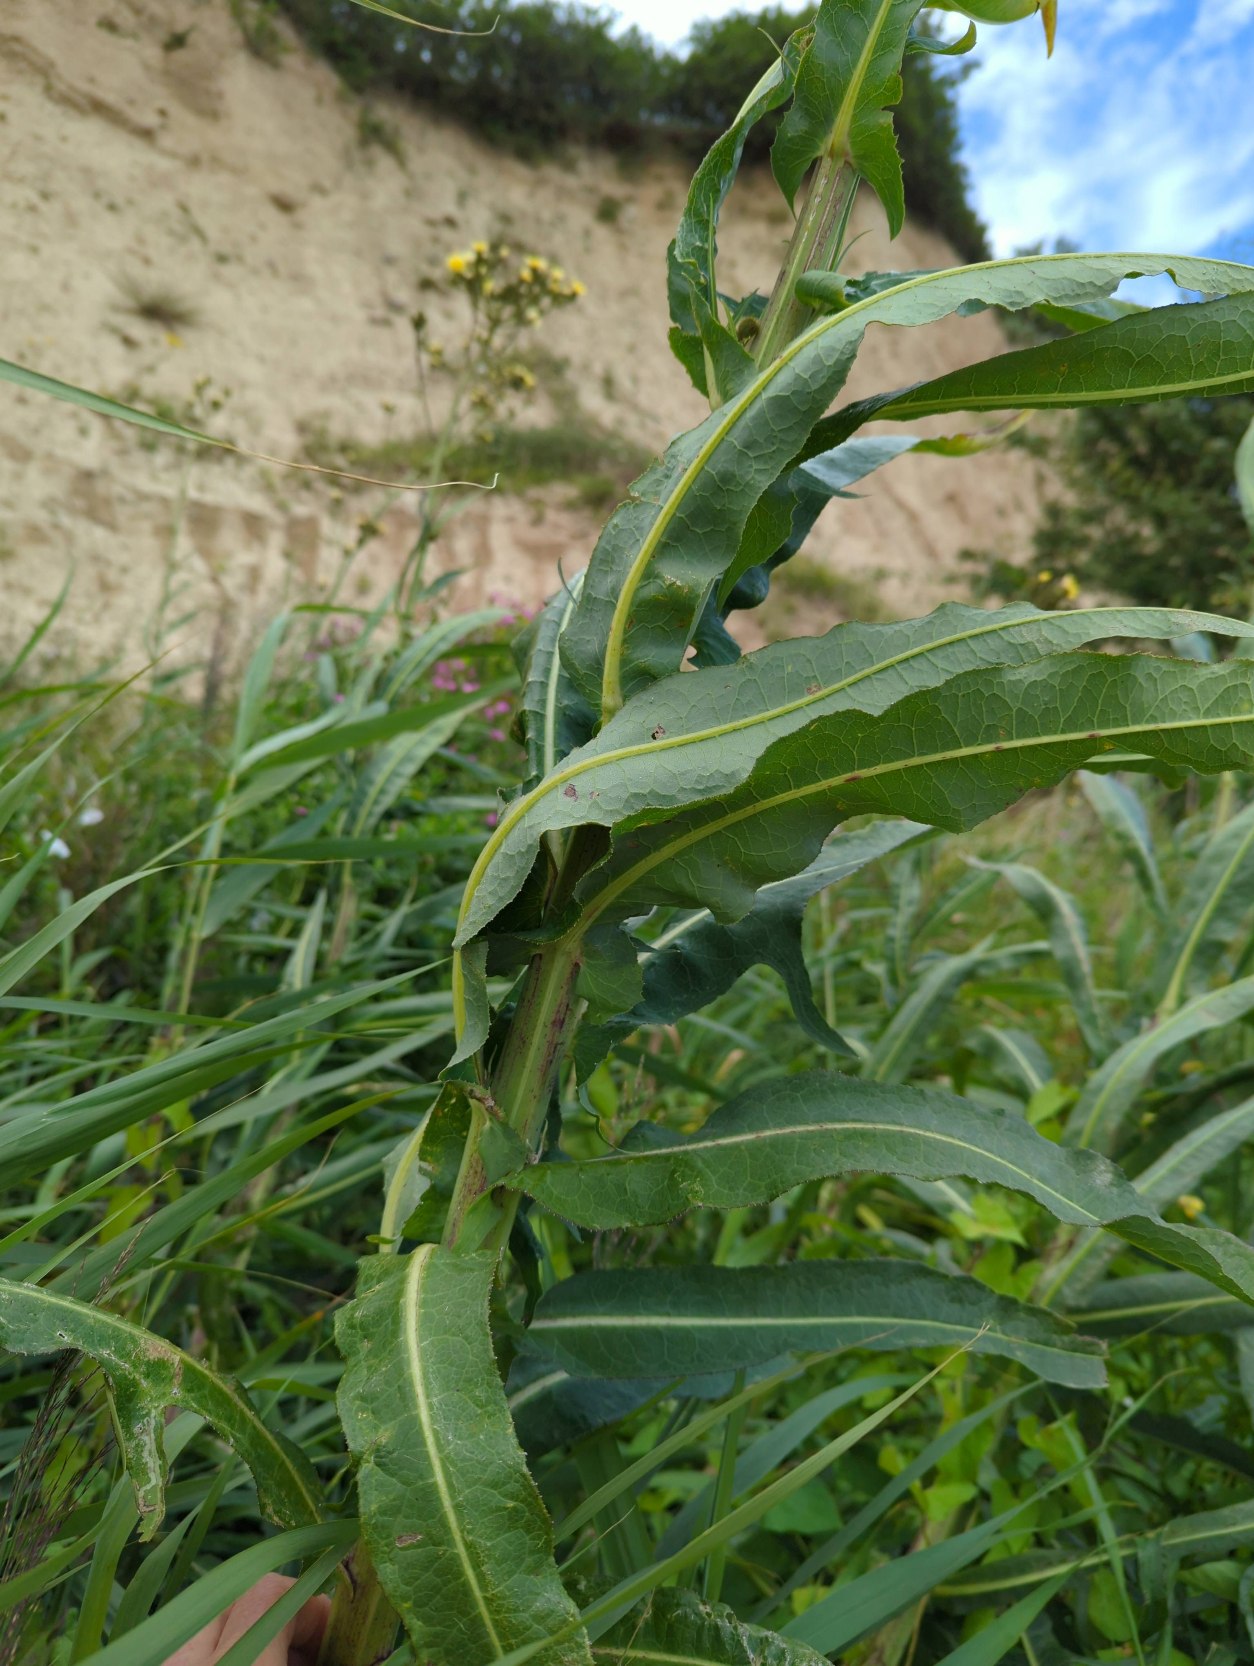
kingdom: Plantae
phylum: Tracheophyta
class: Magnoliopsida
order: Asterales
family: Asteraceae
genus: Sonchus
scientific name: Sonchus palustris
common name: Kær-svinemælk
